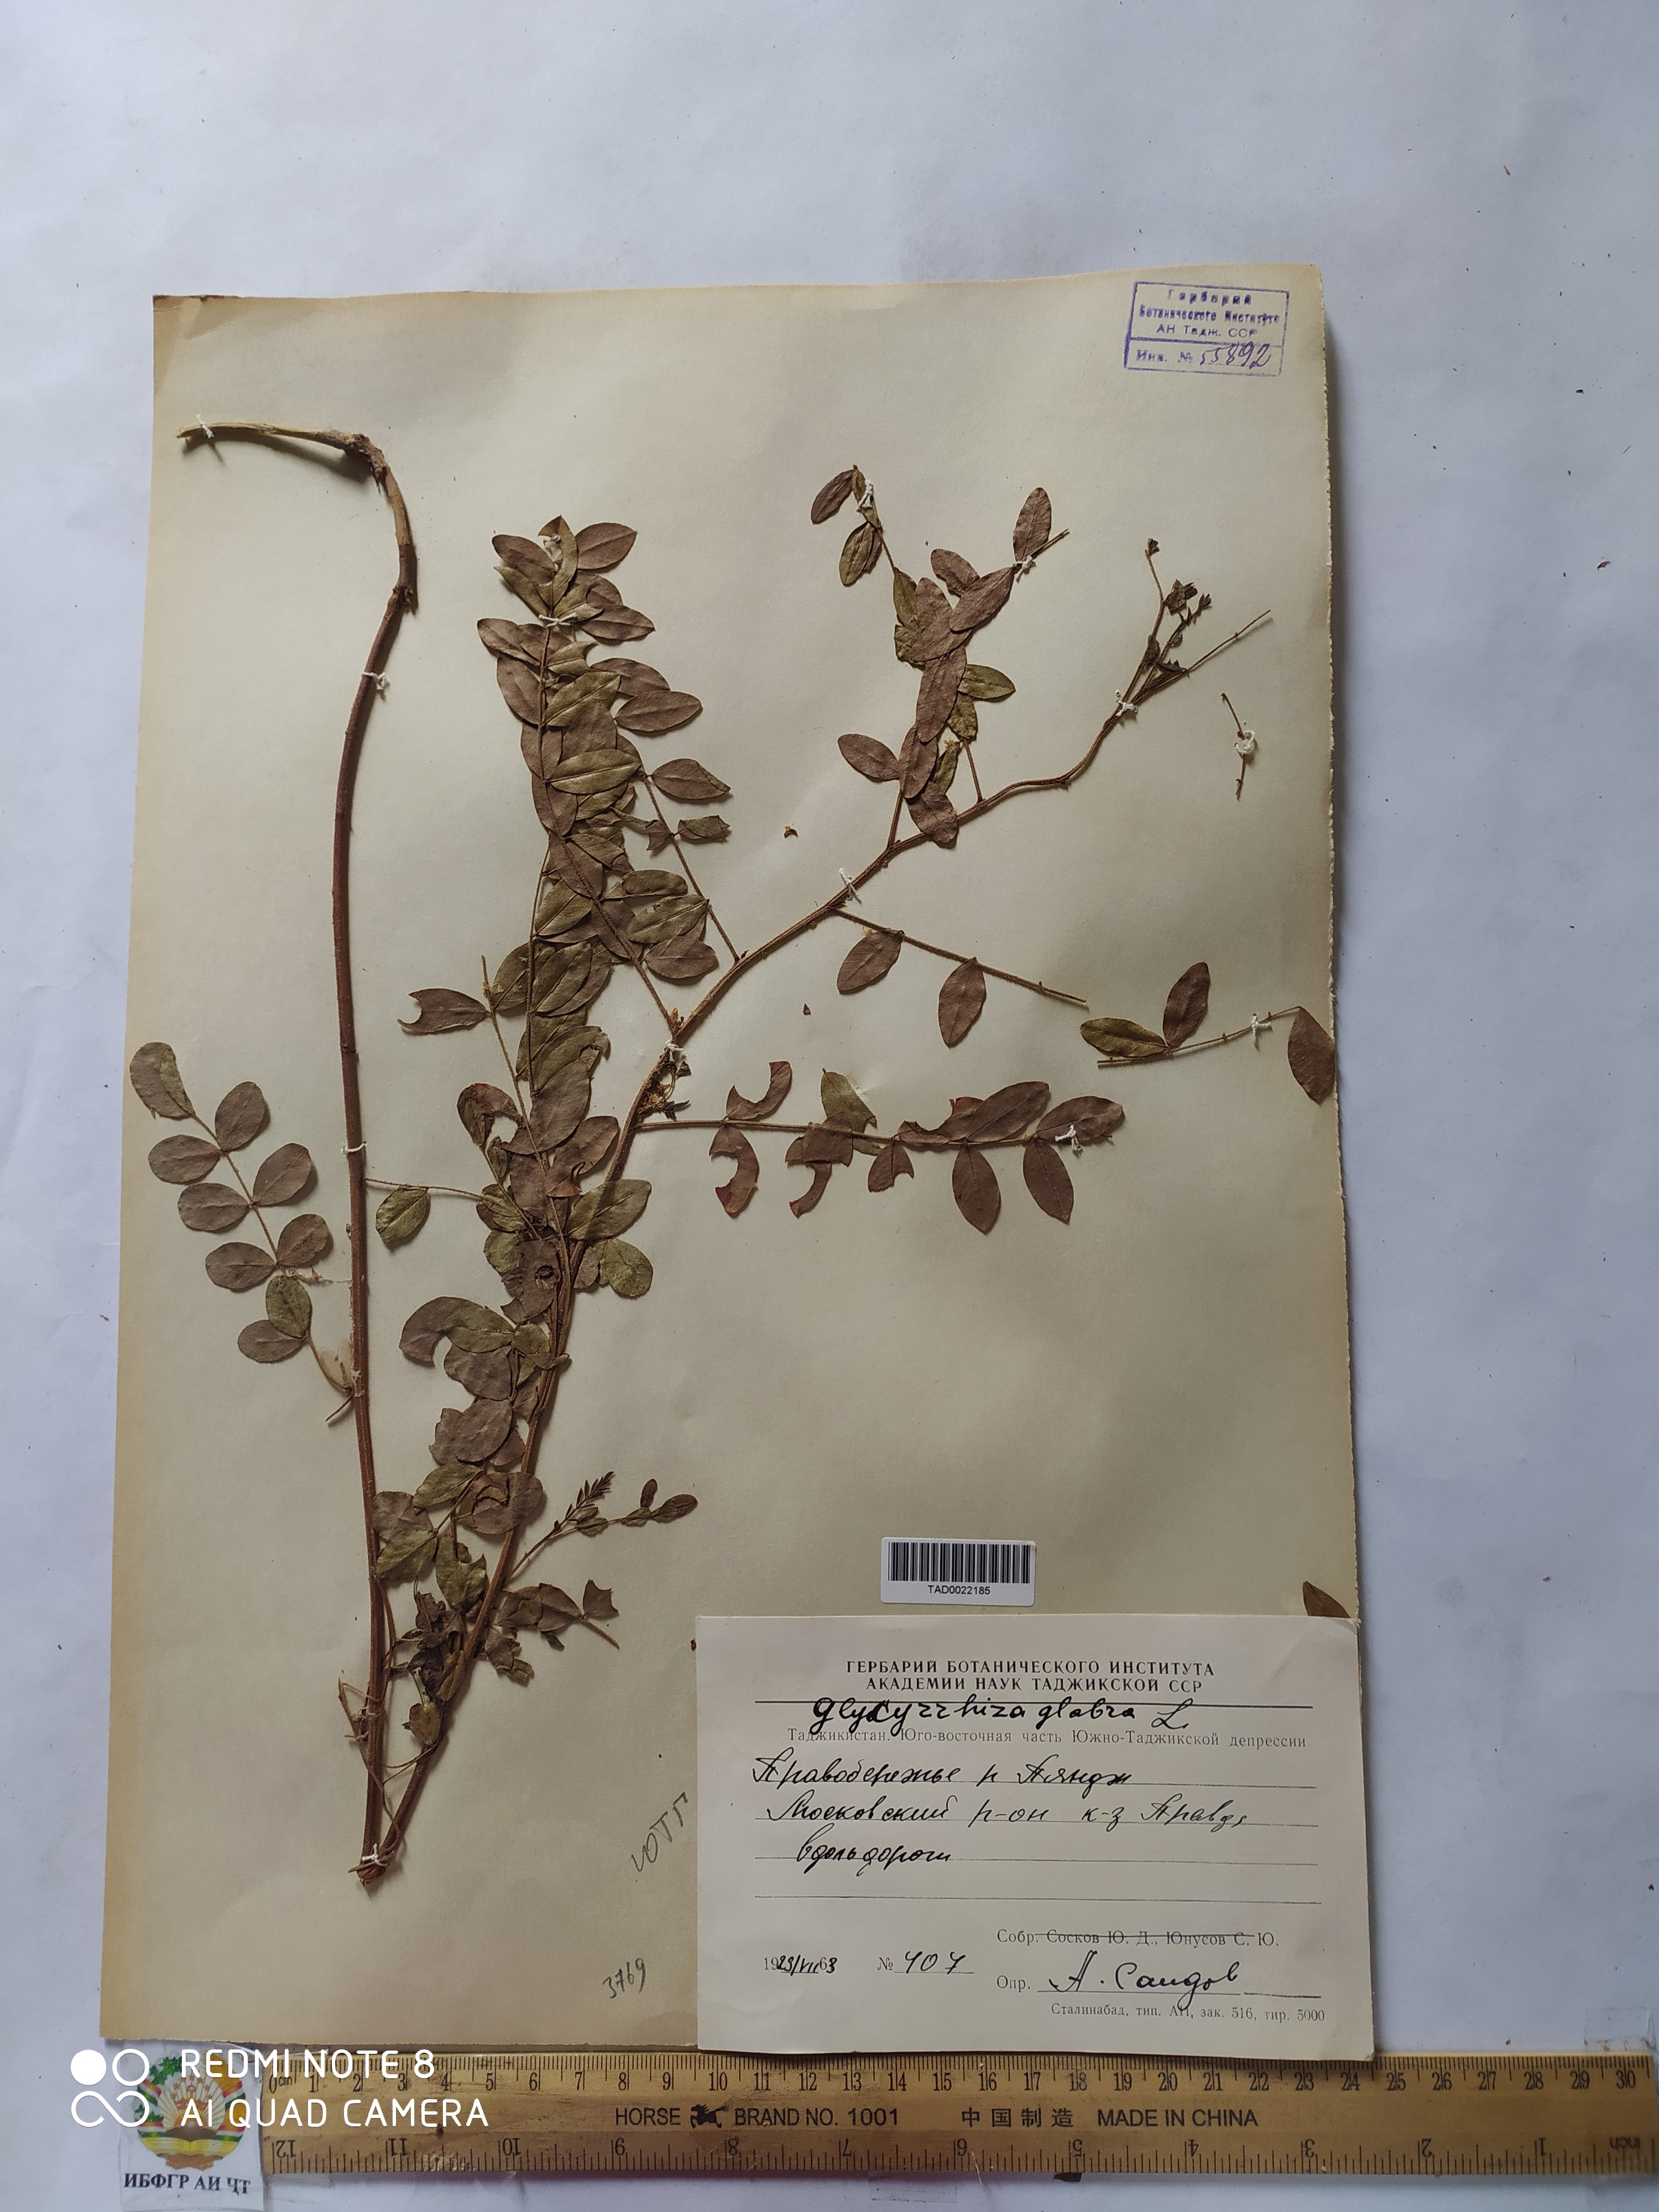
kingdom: Plantae
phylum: Tracheophyta
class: Magnoliopsida
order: Fabales
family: Fabaceae
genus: Glycyrrhiza
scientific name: Glycyrrhiza glabra
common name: Liquorice
